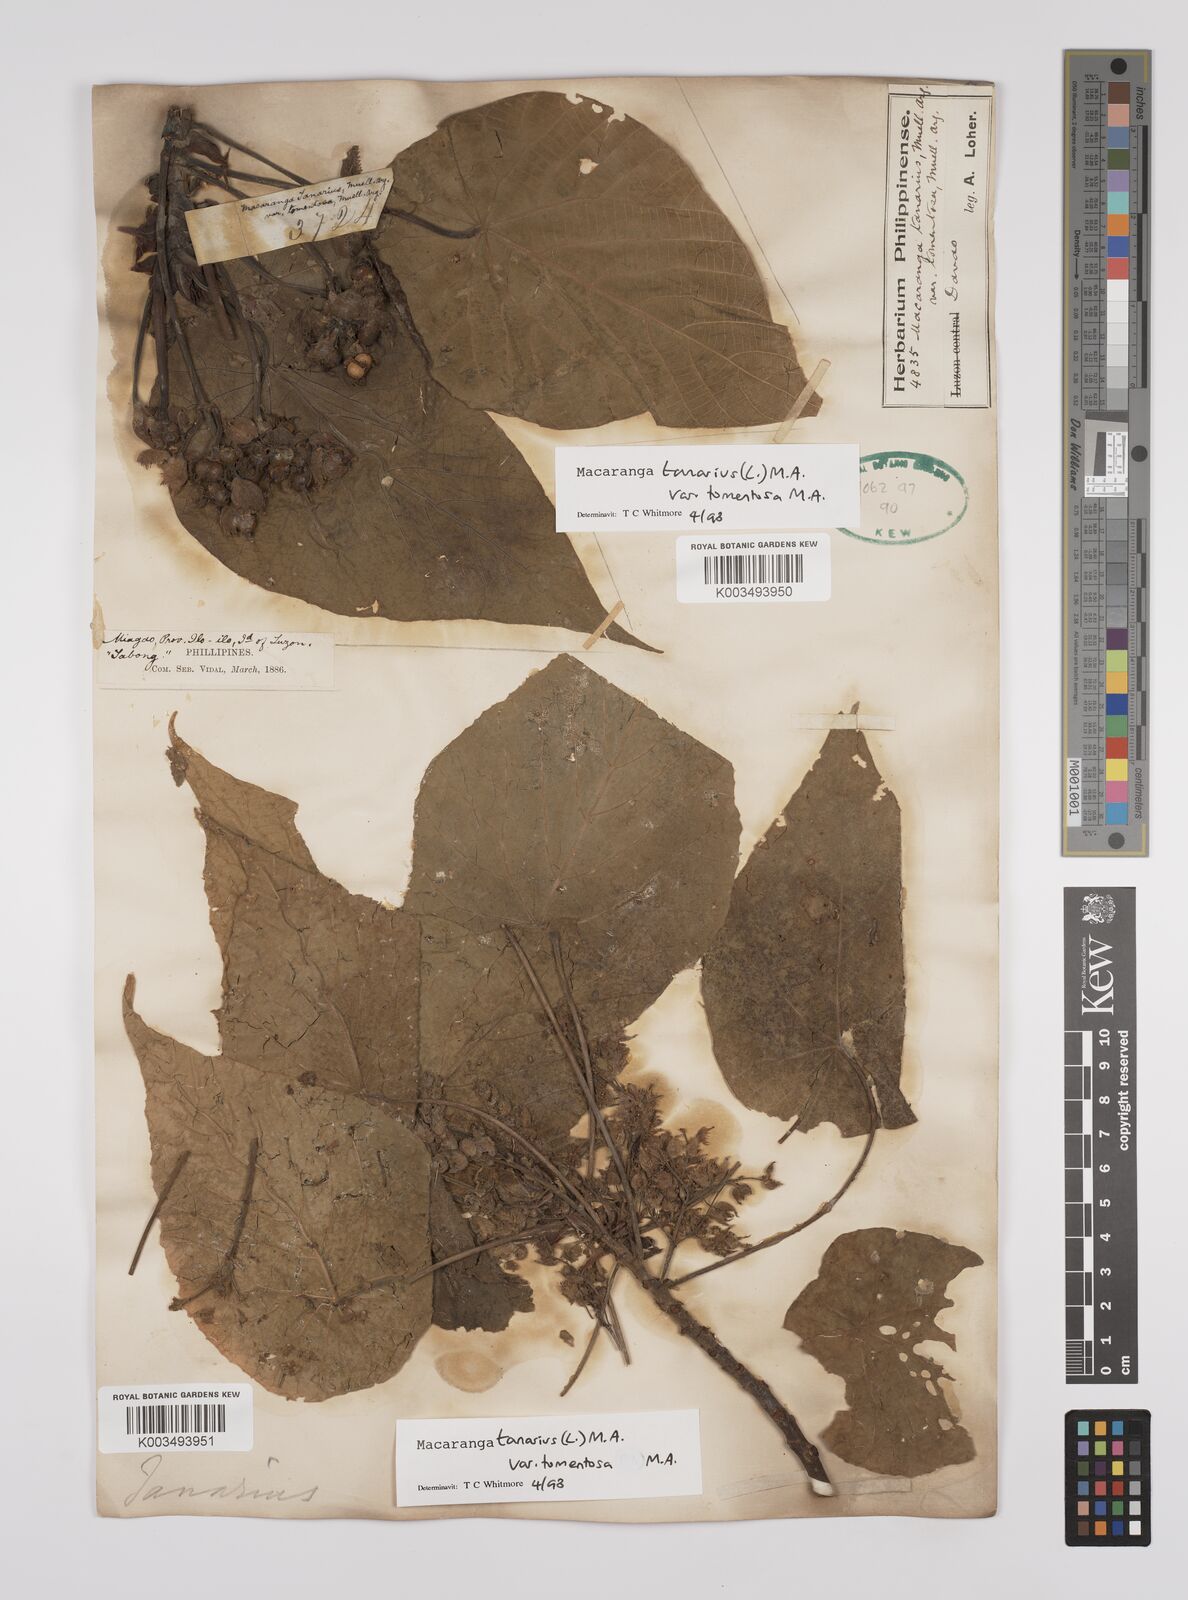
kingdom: Plantae
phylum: Tracheophyta
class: Magnoliopsida
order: Malpighiales
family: Euphorbiaceae
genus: Macaranga
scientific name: Macaranga tanarius
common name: Parasol leaf tree
